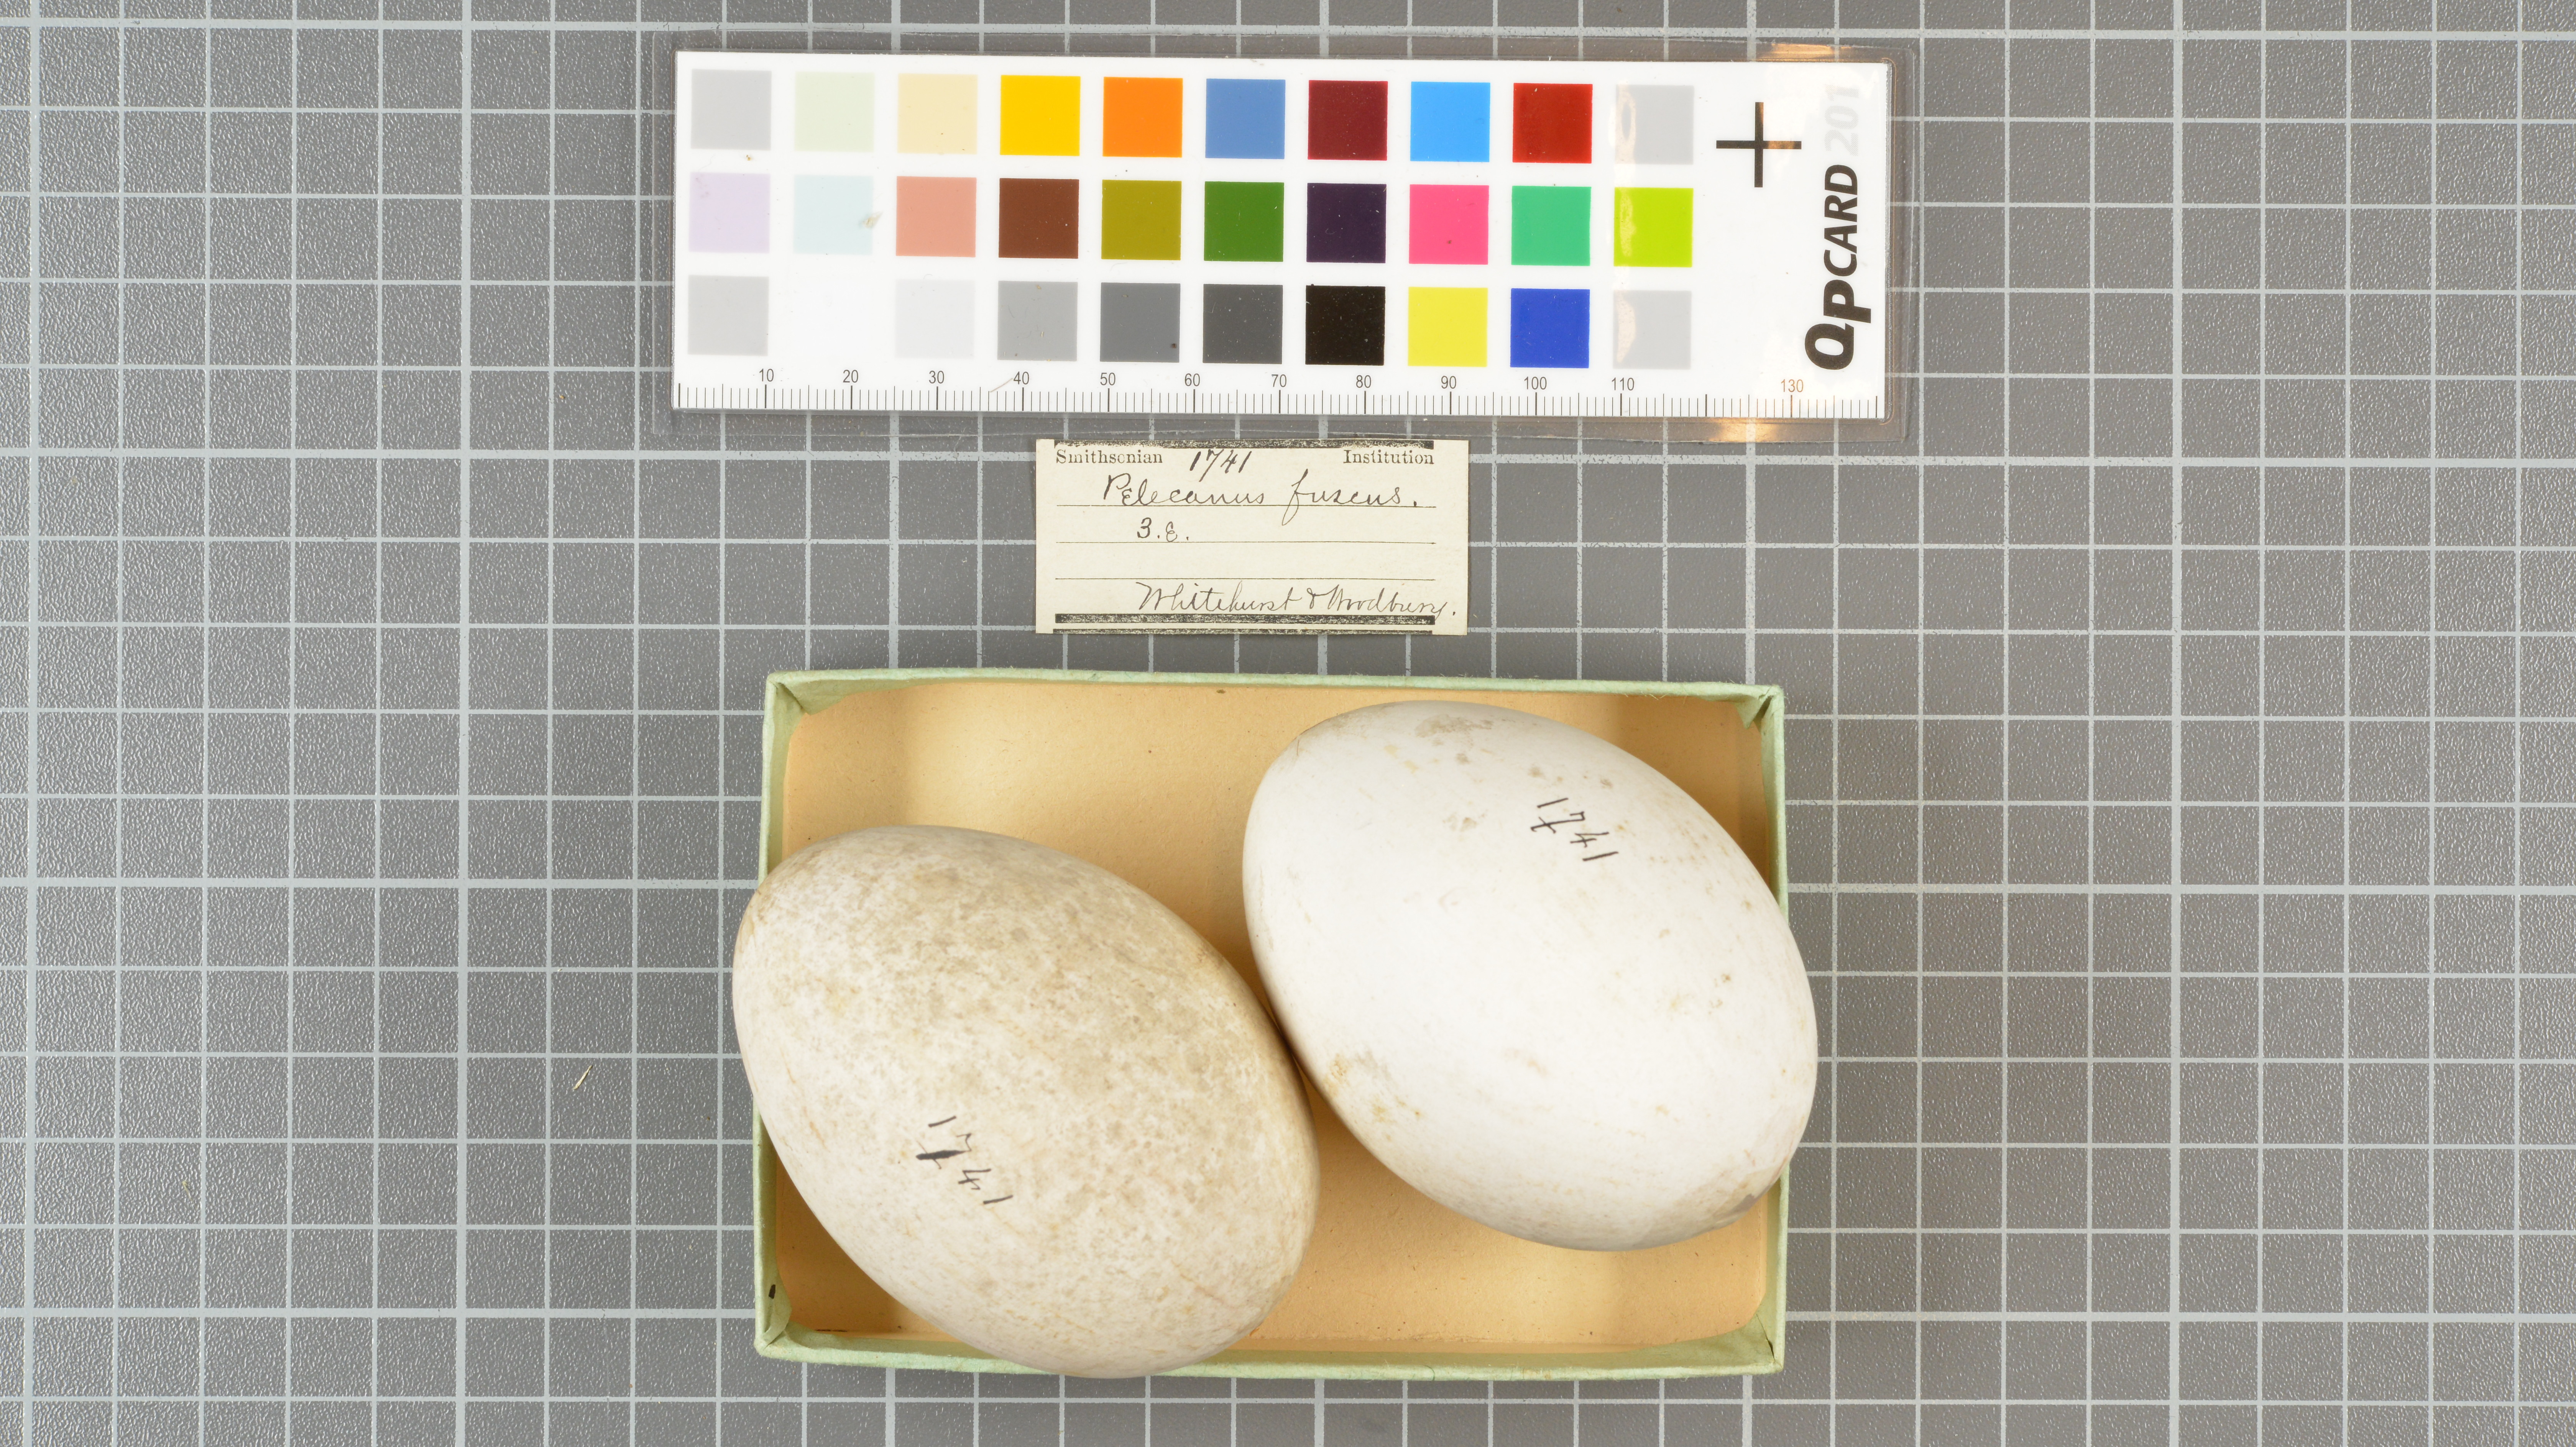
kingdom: Animalia
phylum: Chordata
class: Aves
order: Pelecaniformes
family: Pelecanidae
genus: Pelecanus
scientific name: Pelecanus occidentalis
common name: Brown pelican
